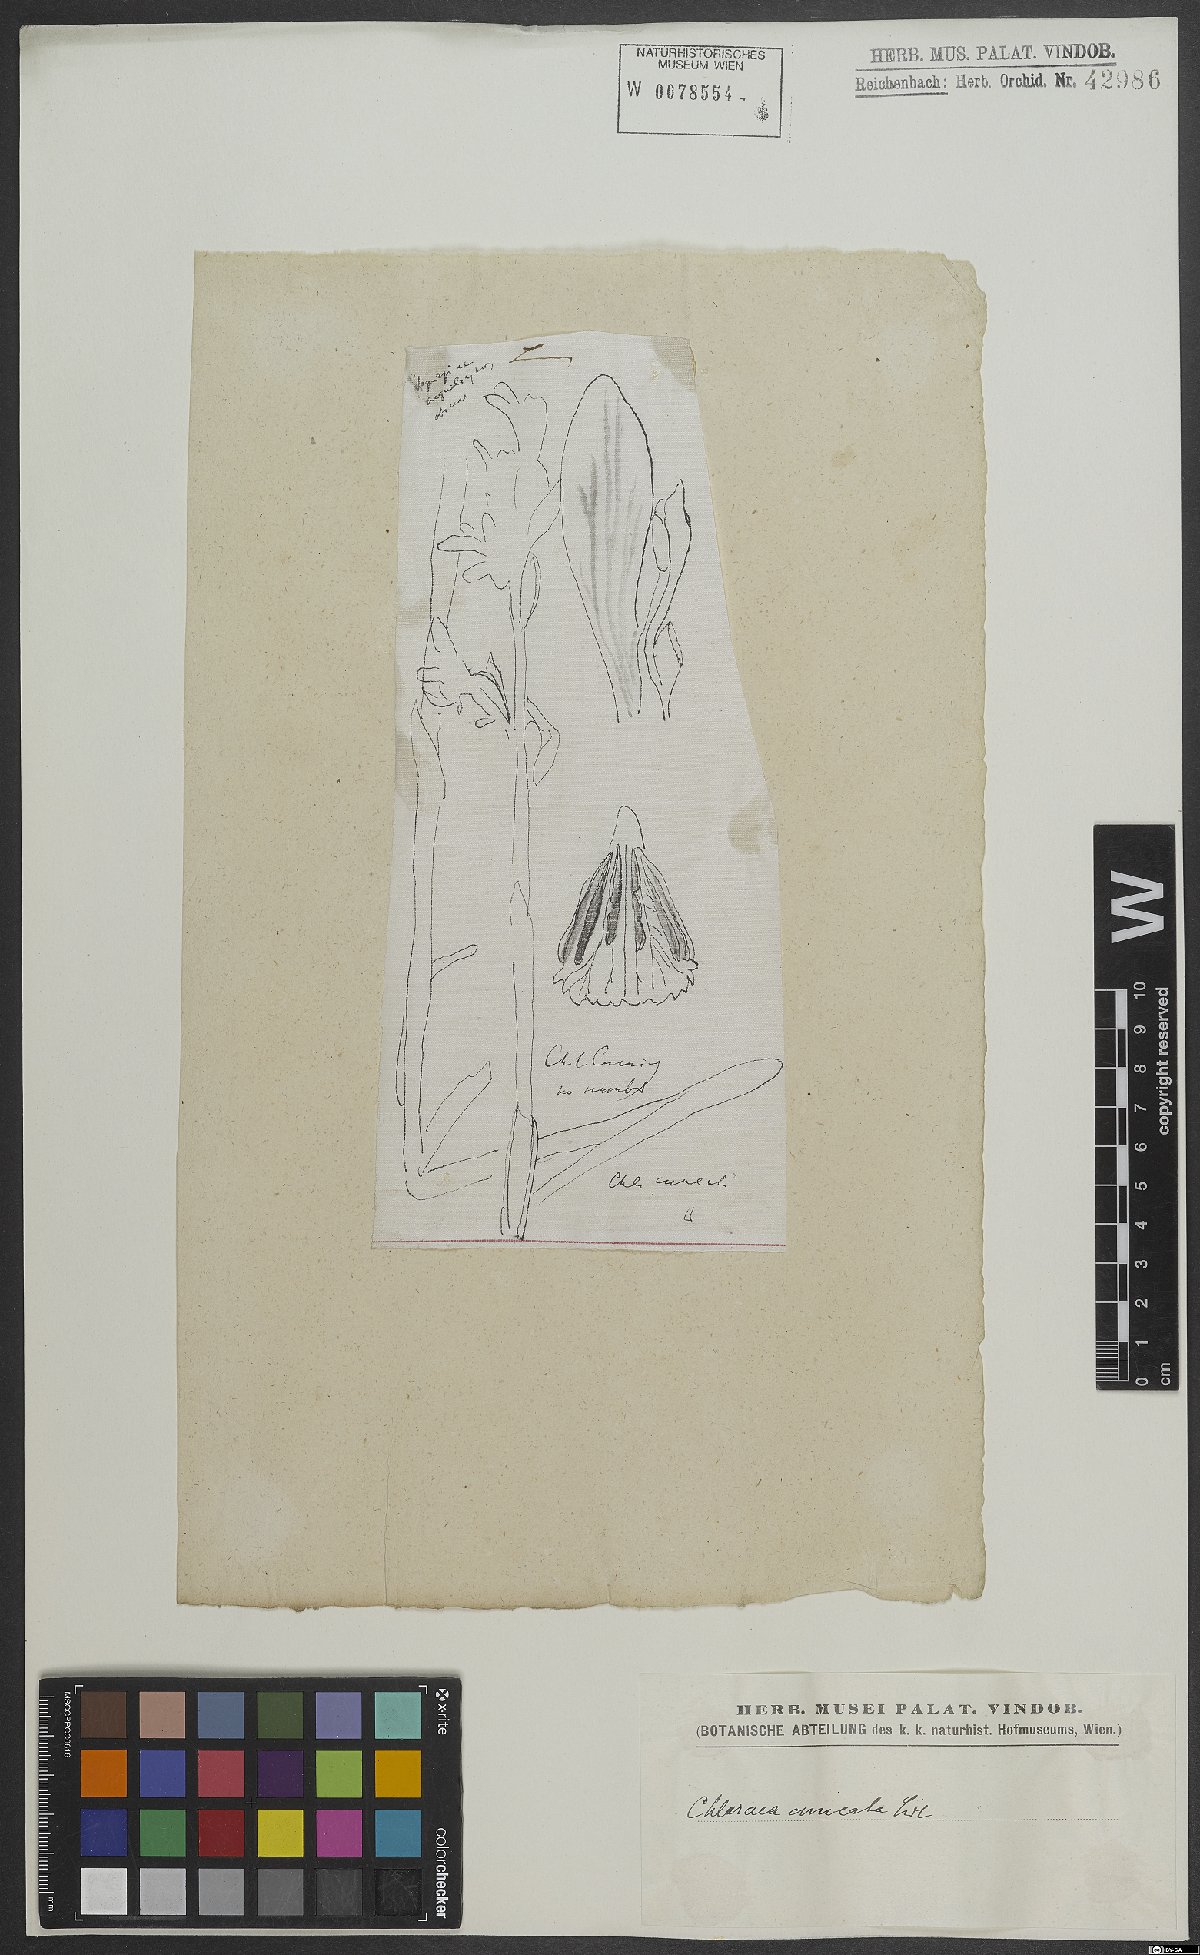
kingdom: Plantae
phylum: Tracheophyta
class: Liliopsida
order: Asparagales
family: Orchidaceae
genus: Chloraea
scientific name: Chloraea
